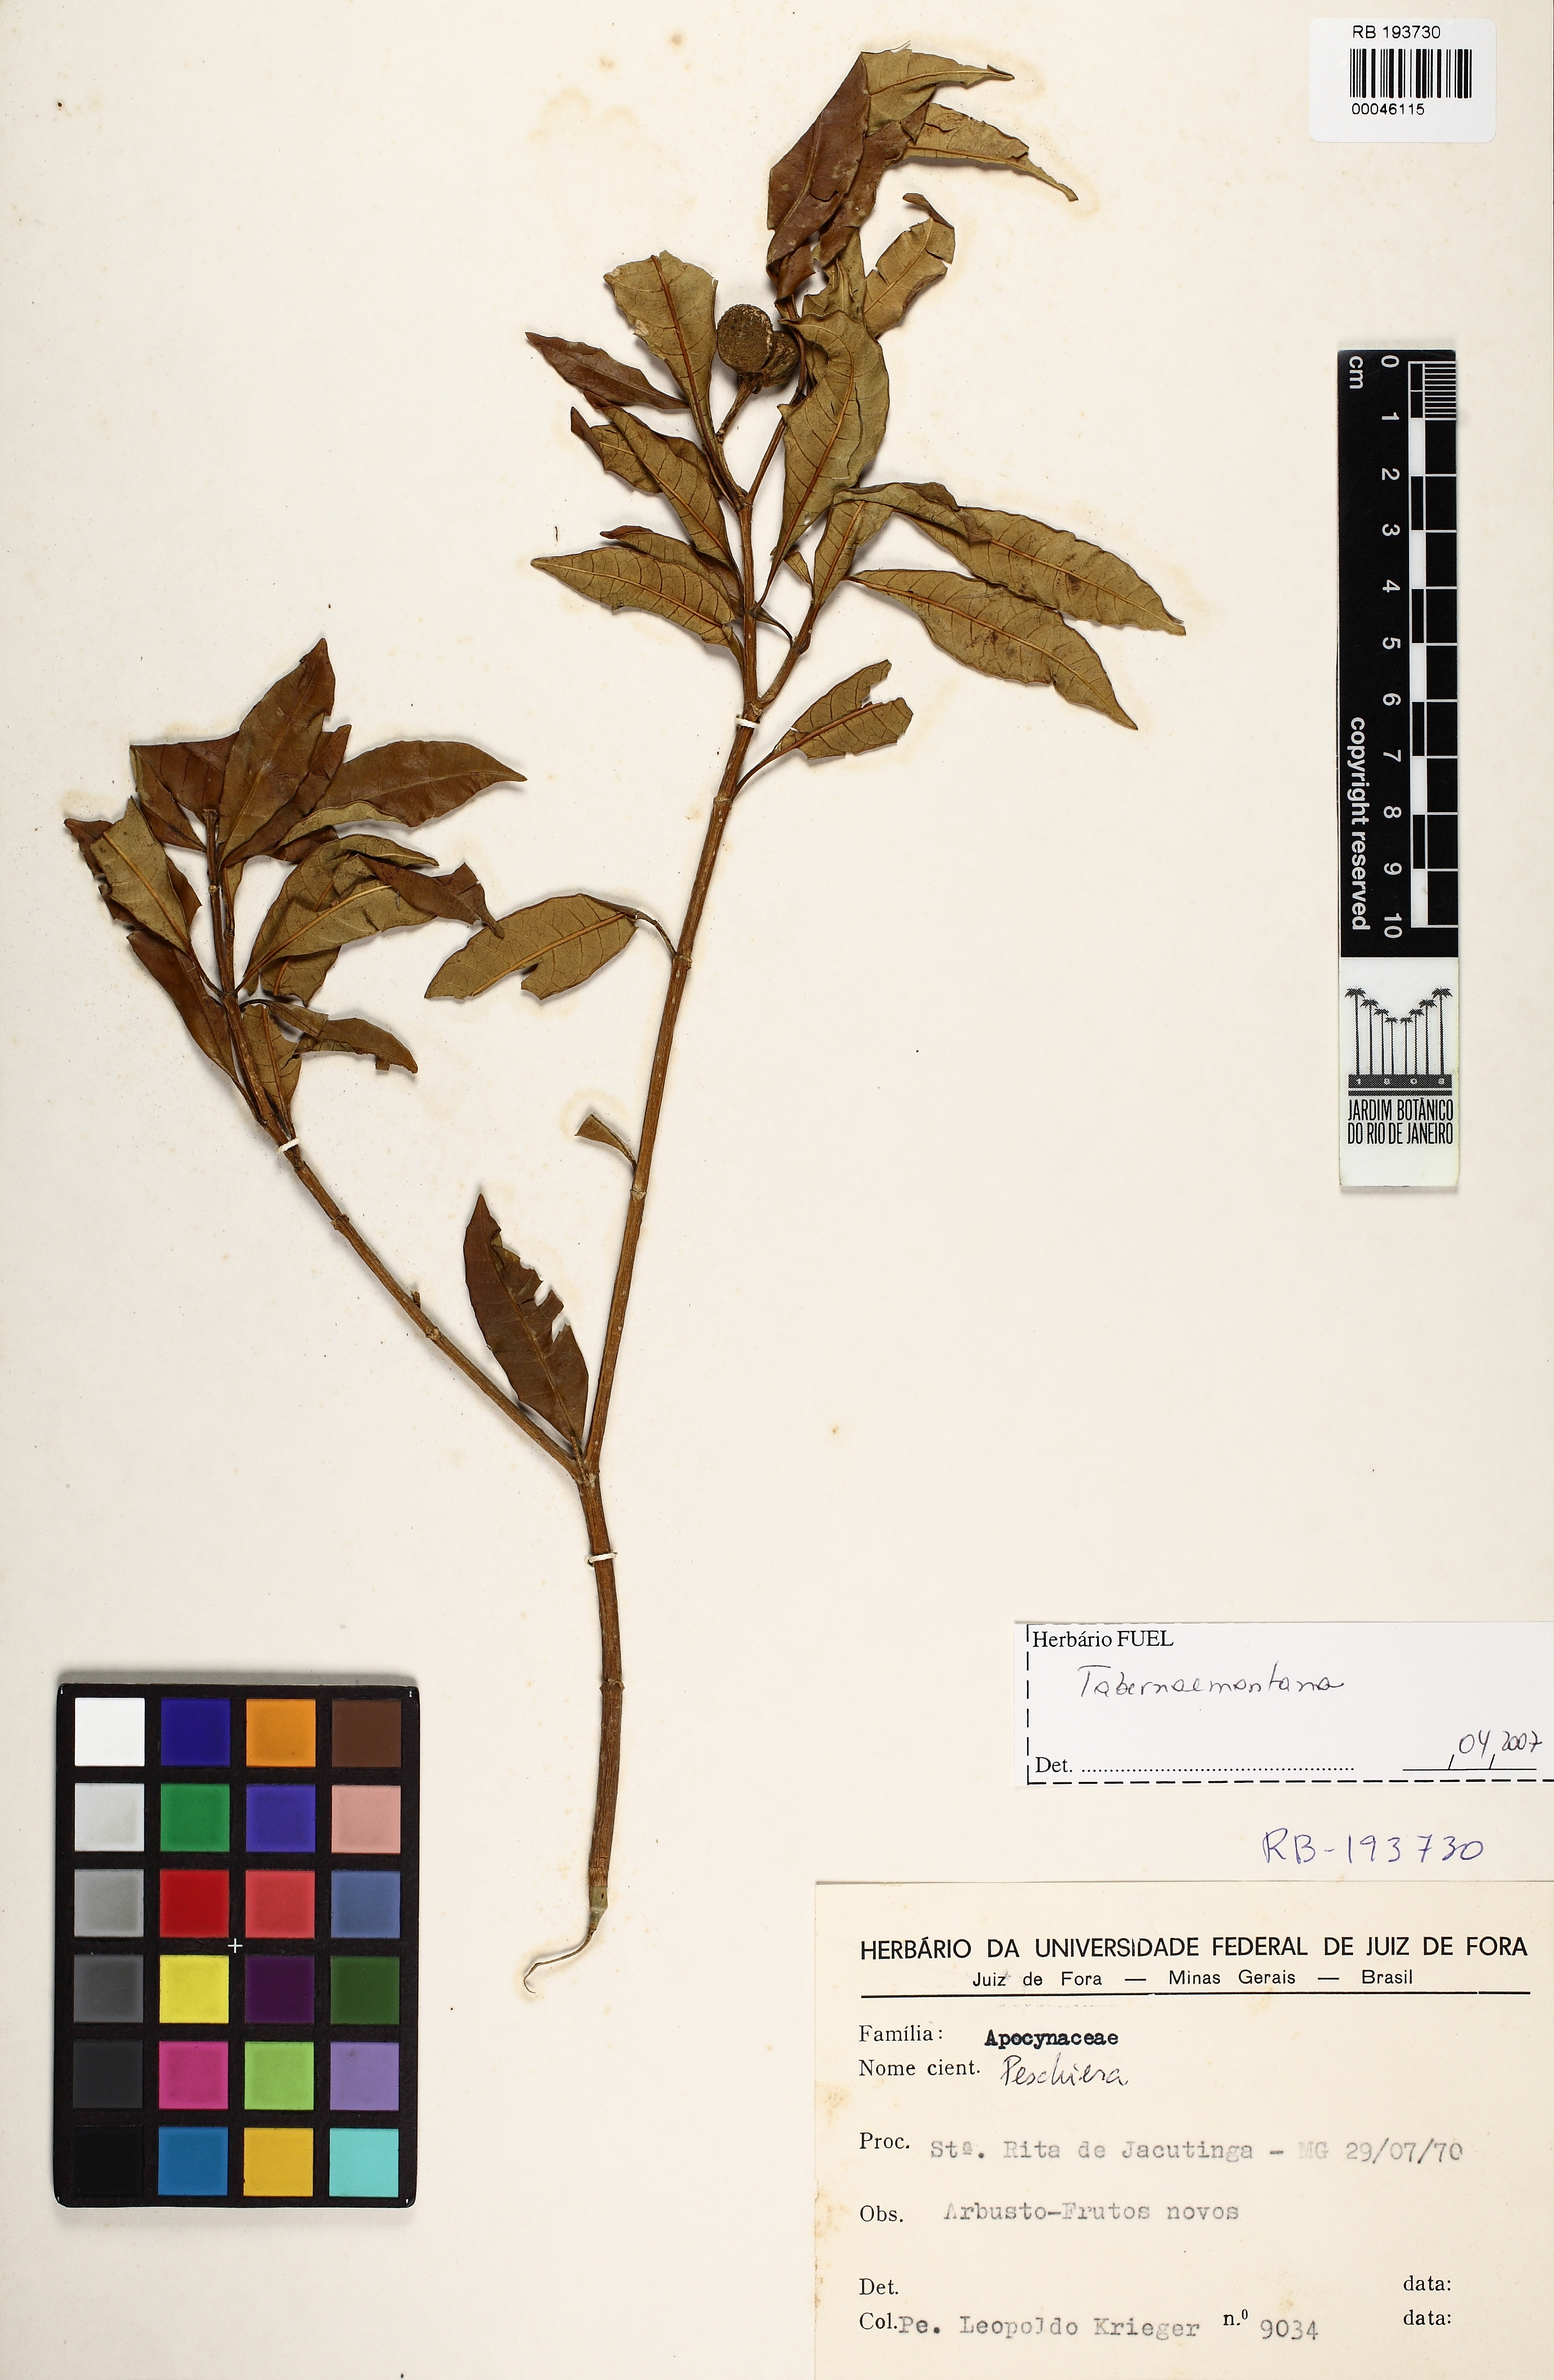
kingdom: Plantae
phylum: Tracheophyta
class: Magnoliopsida
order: Gentianales
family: Apocynaceae
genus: Tabernaemontana
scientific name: Tabernaemontana
